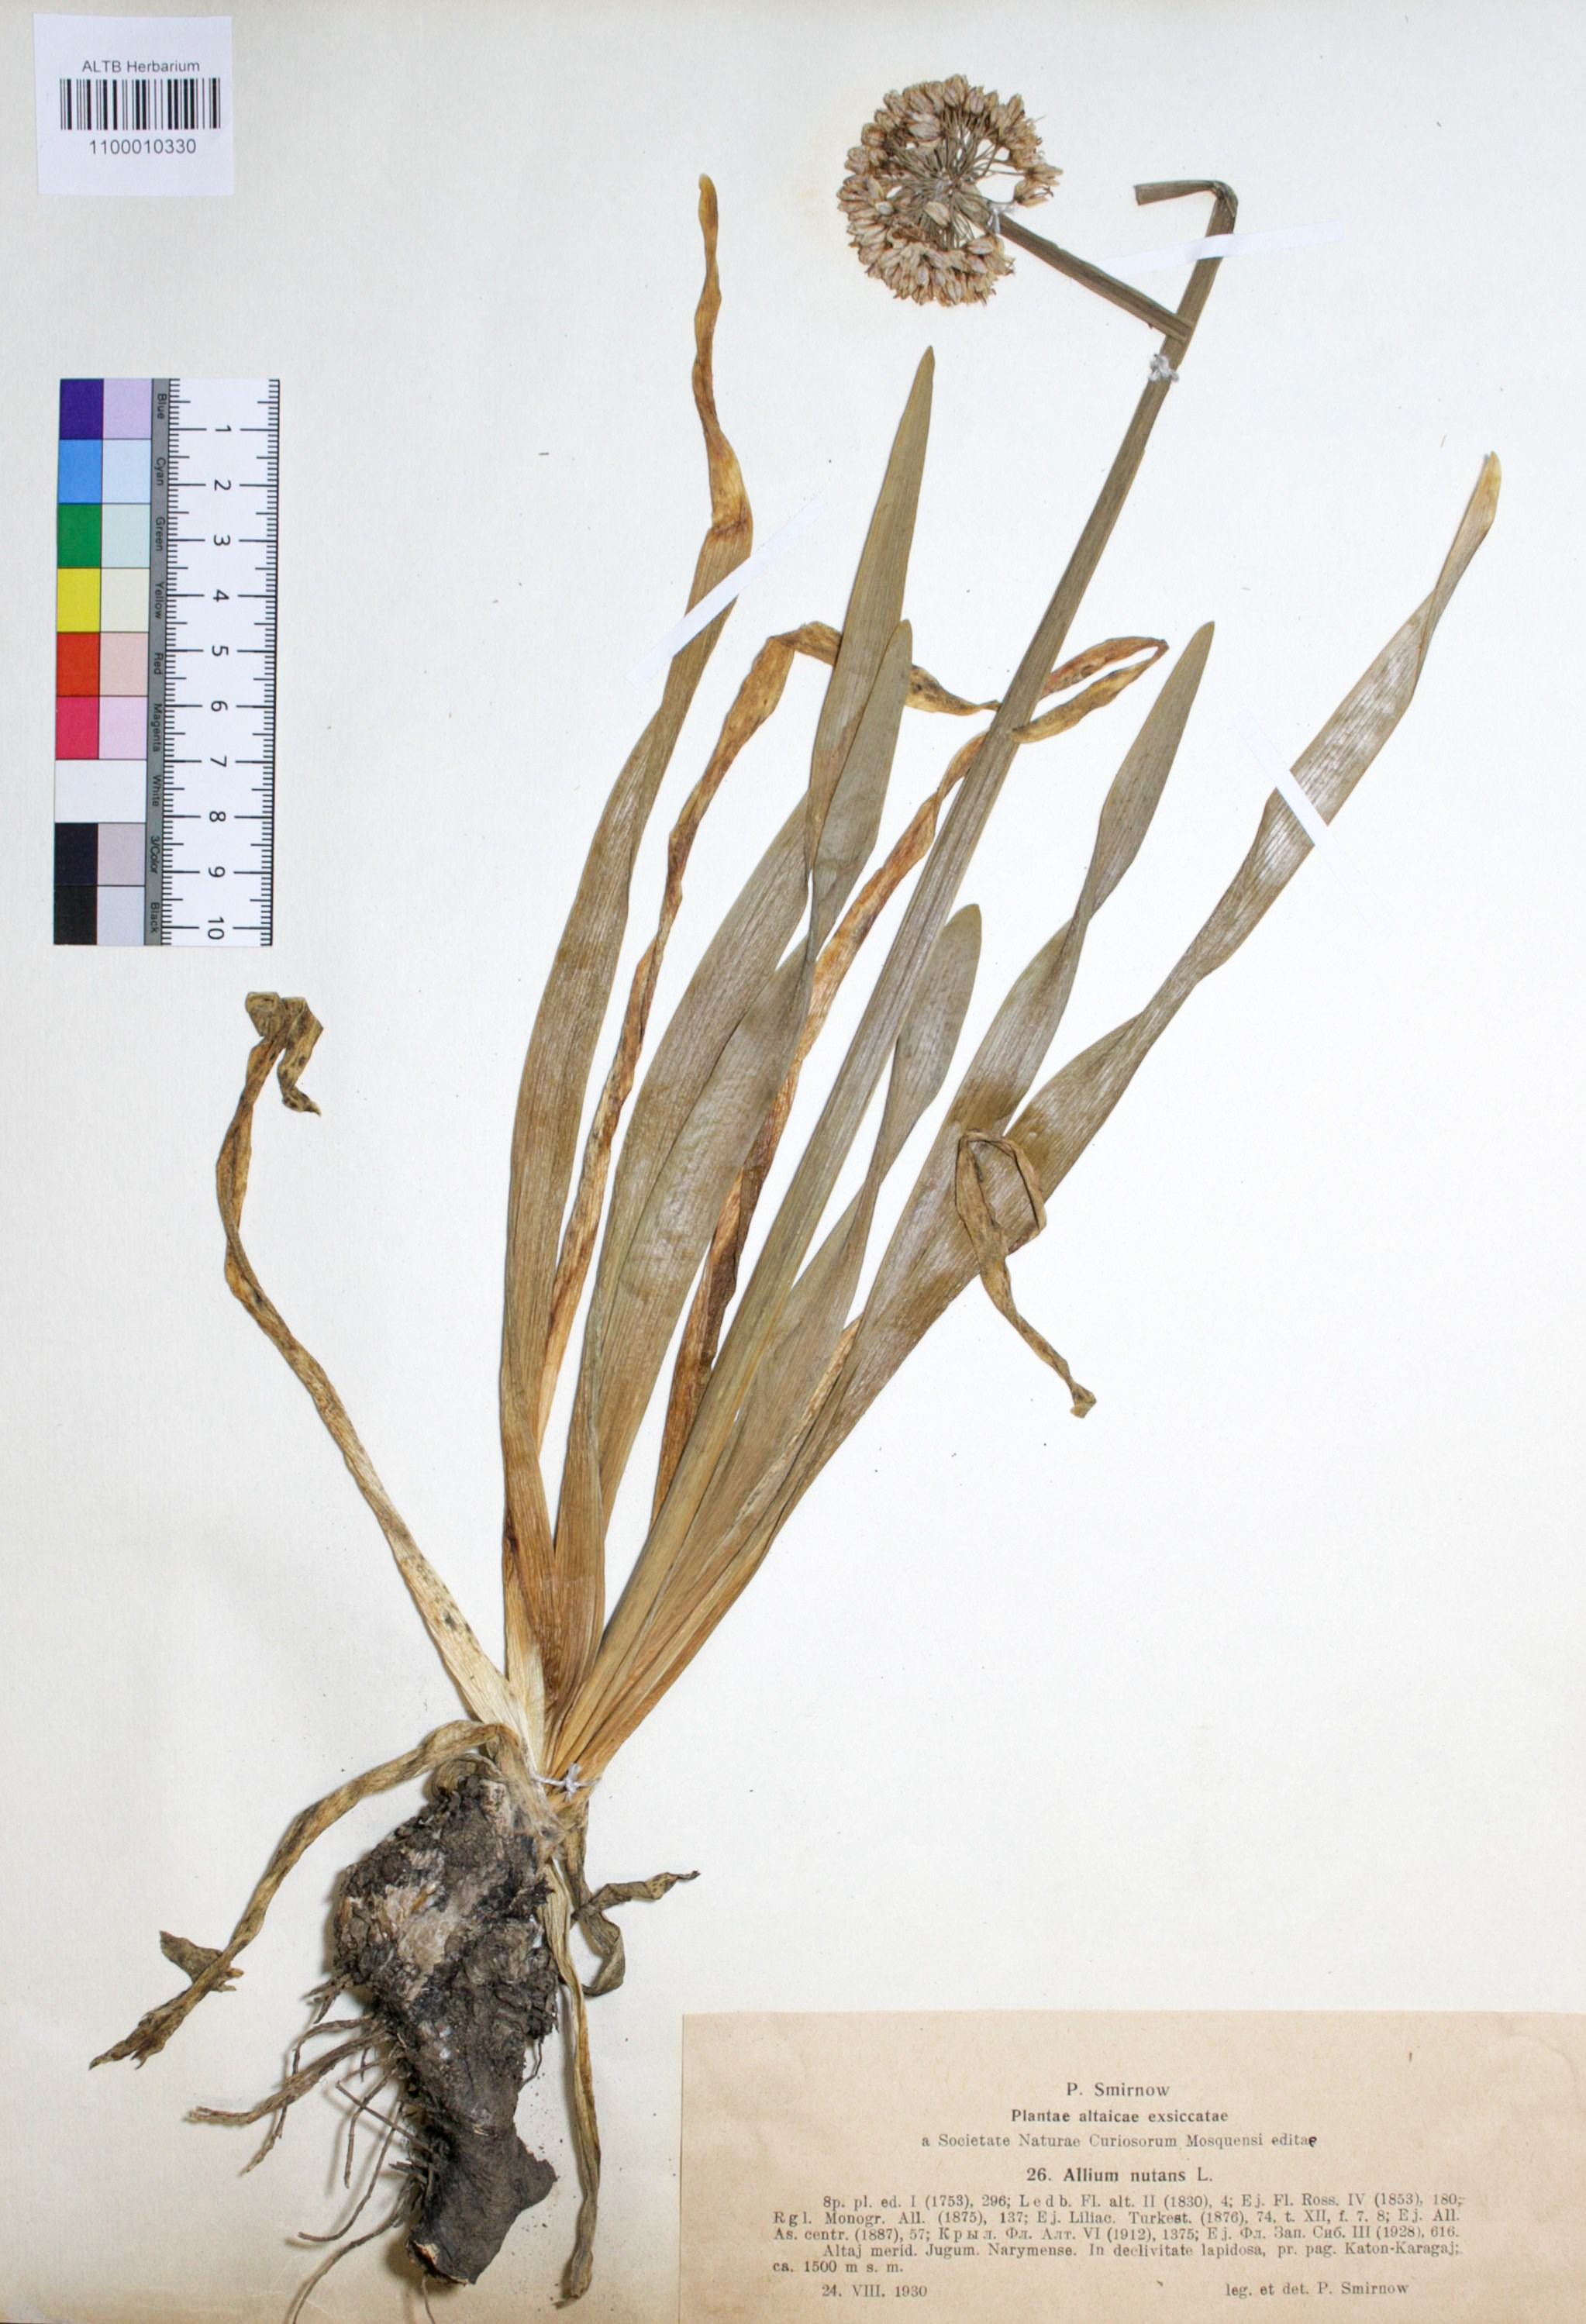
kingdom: Plantae
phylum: Tracheophyta
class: Liliopsida
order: Asparagales
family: Amaryllidaceae
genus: Allium
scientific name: Allium nutans
